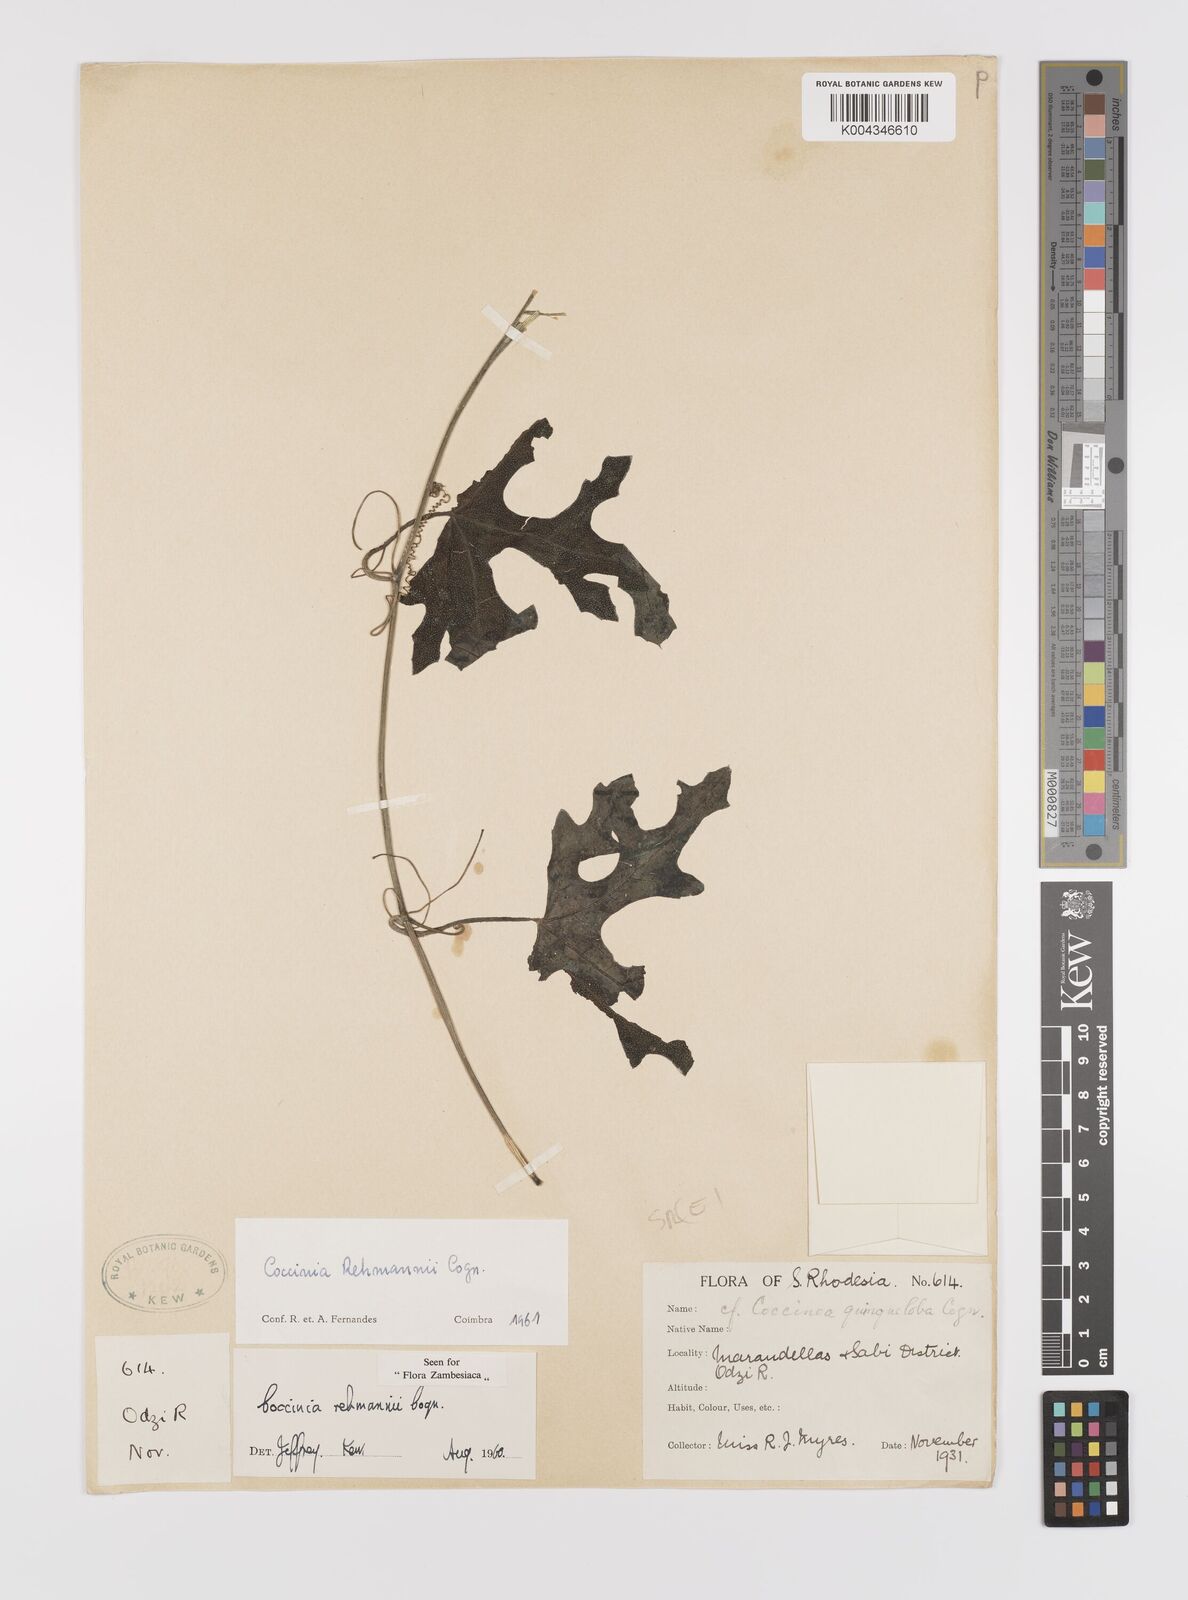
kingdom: Plantae
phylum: Tracheophyta
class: Magnoliopsida
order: Cucurbitales
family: Cucurbitaceae
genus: Coccinia
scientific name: Coccinia rehmannii
